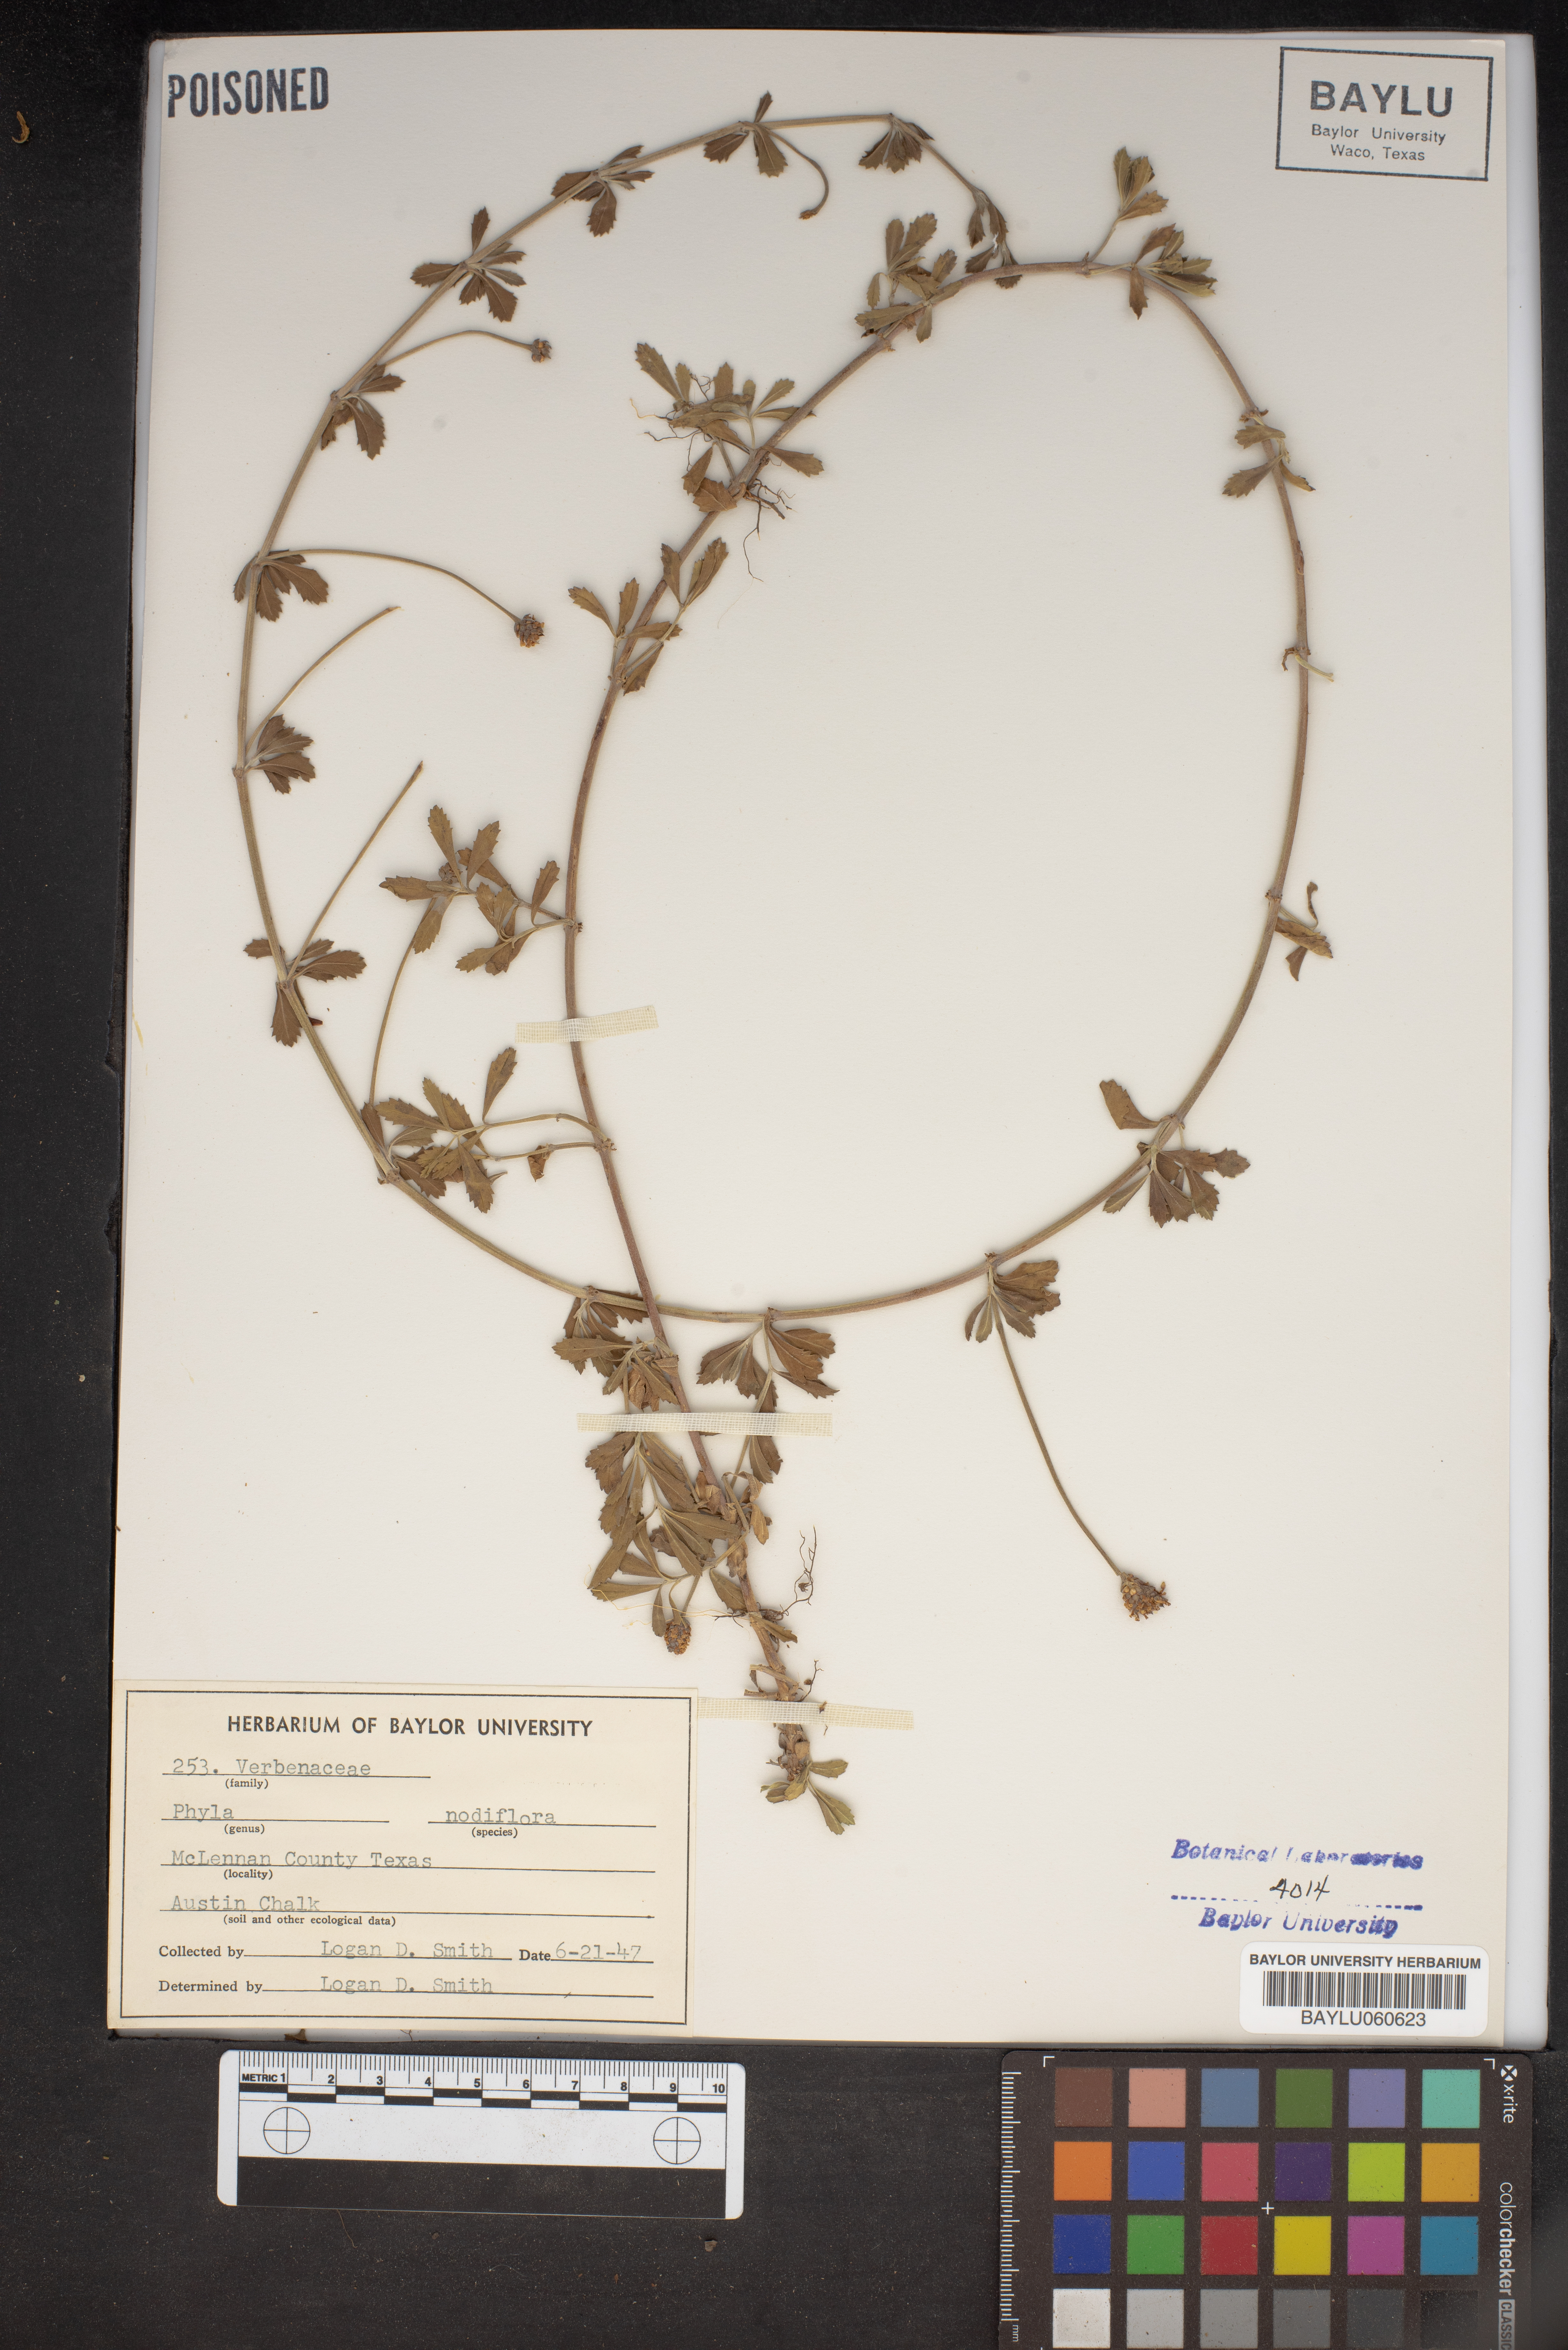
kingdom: Plantae
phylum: Tracheophyta
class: Magnoliopsida
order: Lamiales
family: Verbenaceae
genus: Phyla
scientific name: Phyla nodiflora
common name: Frogfruit
